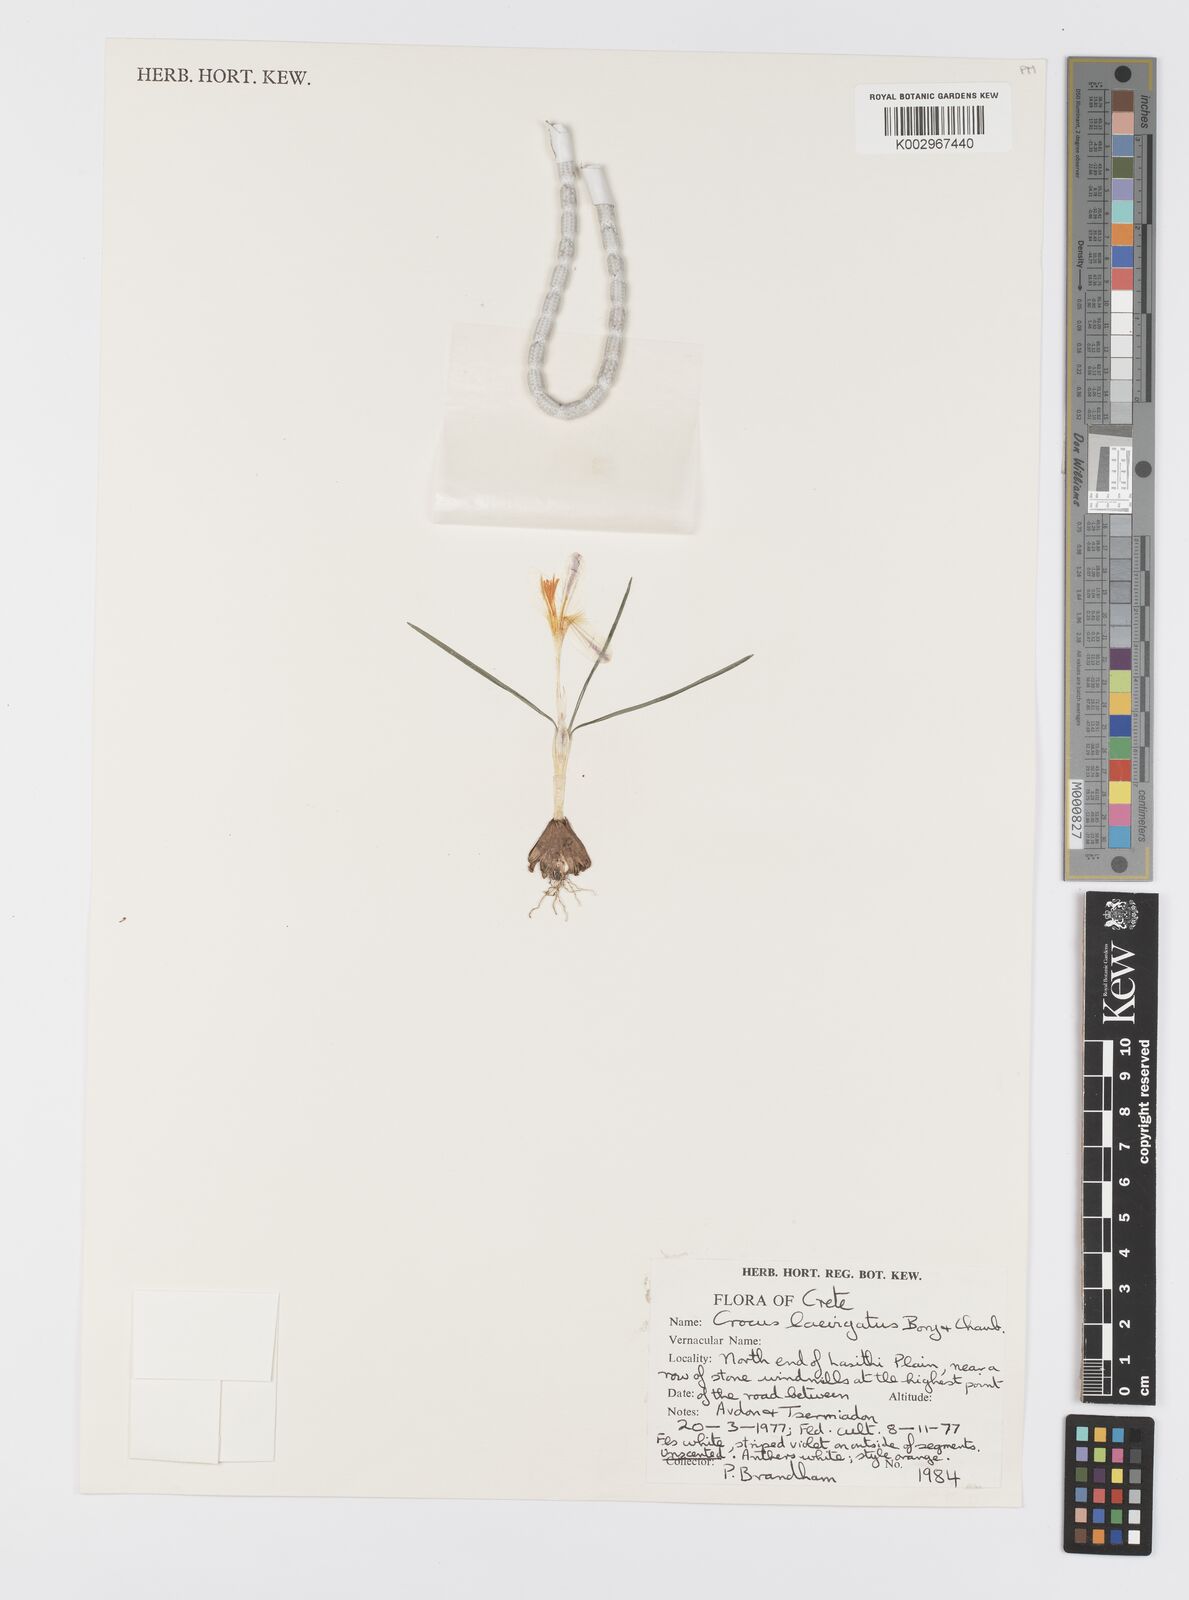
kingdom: Plantae
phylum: Tracheophyta
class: Liliopsida
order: Asparagales
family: Iridaceae
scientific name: Iridaceae
